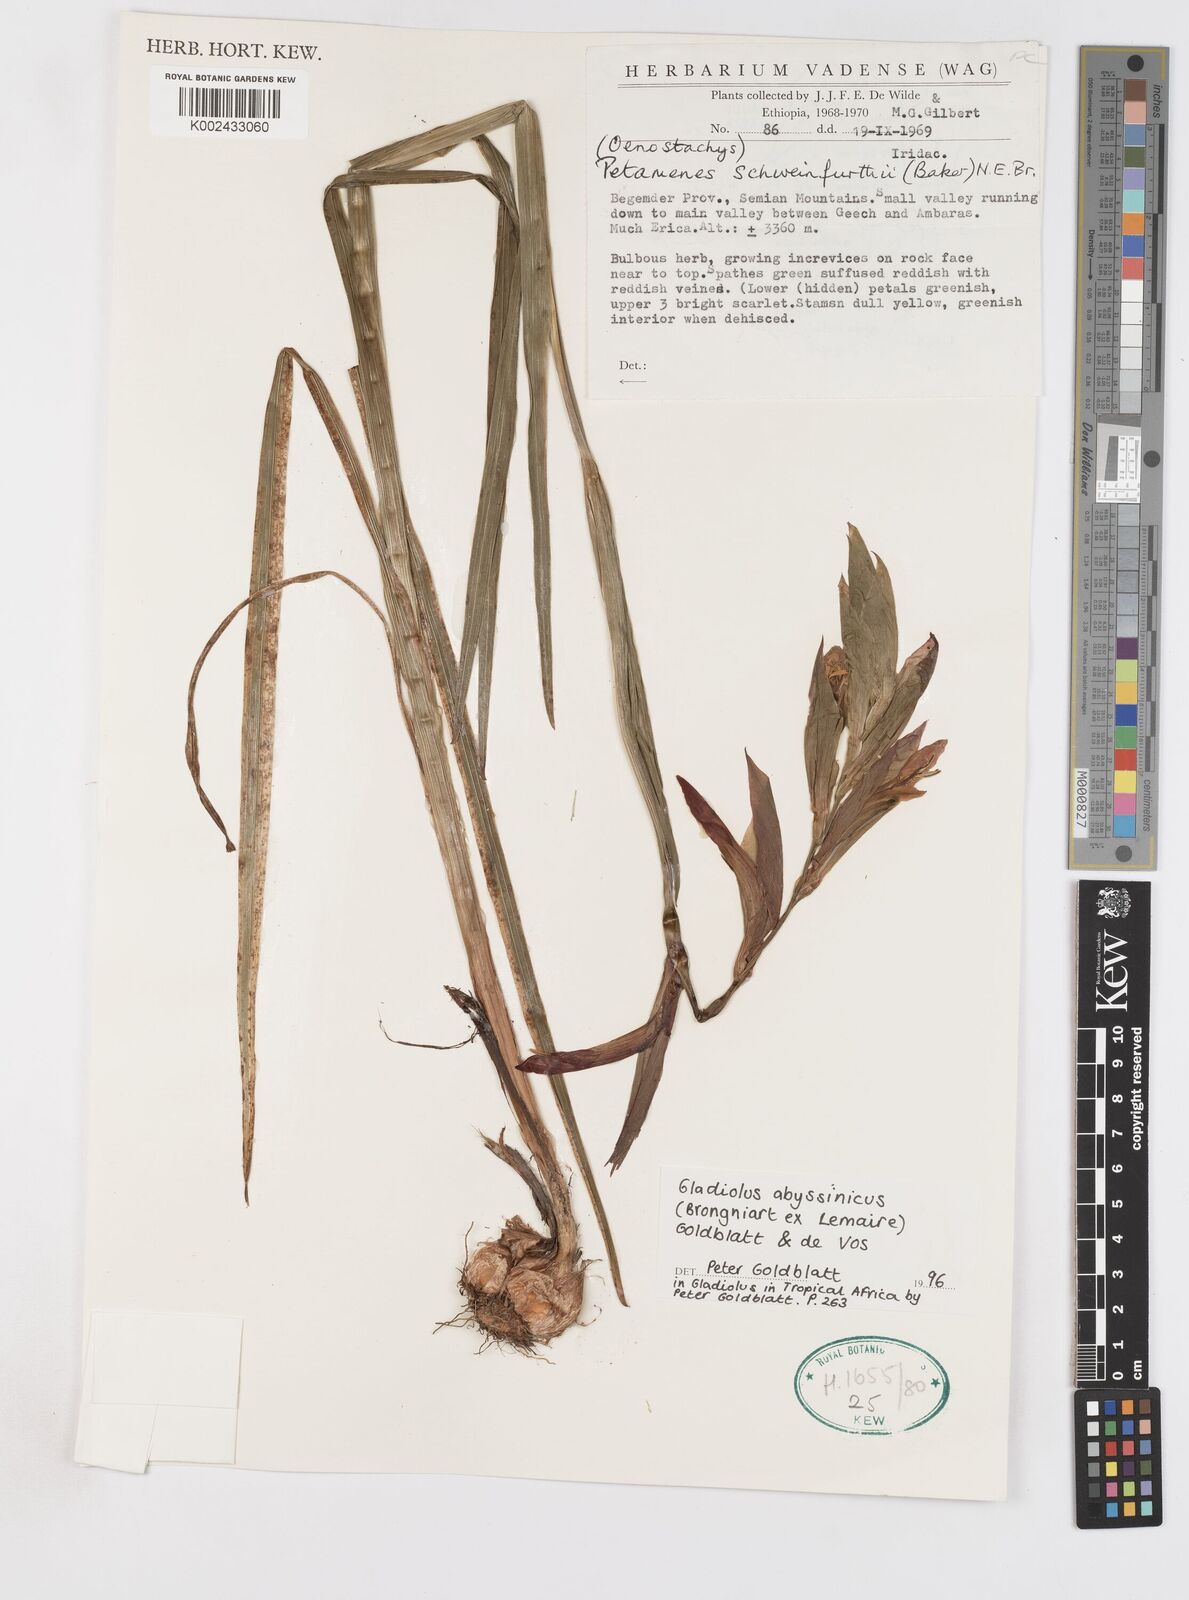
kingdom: Plantae
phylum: Tracheophyta
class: Liliopsida
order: Asparagales
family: Iridaceae
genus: Gladiolus
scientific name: Gladiolus abyssinicus
